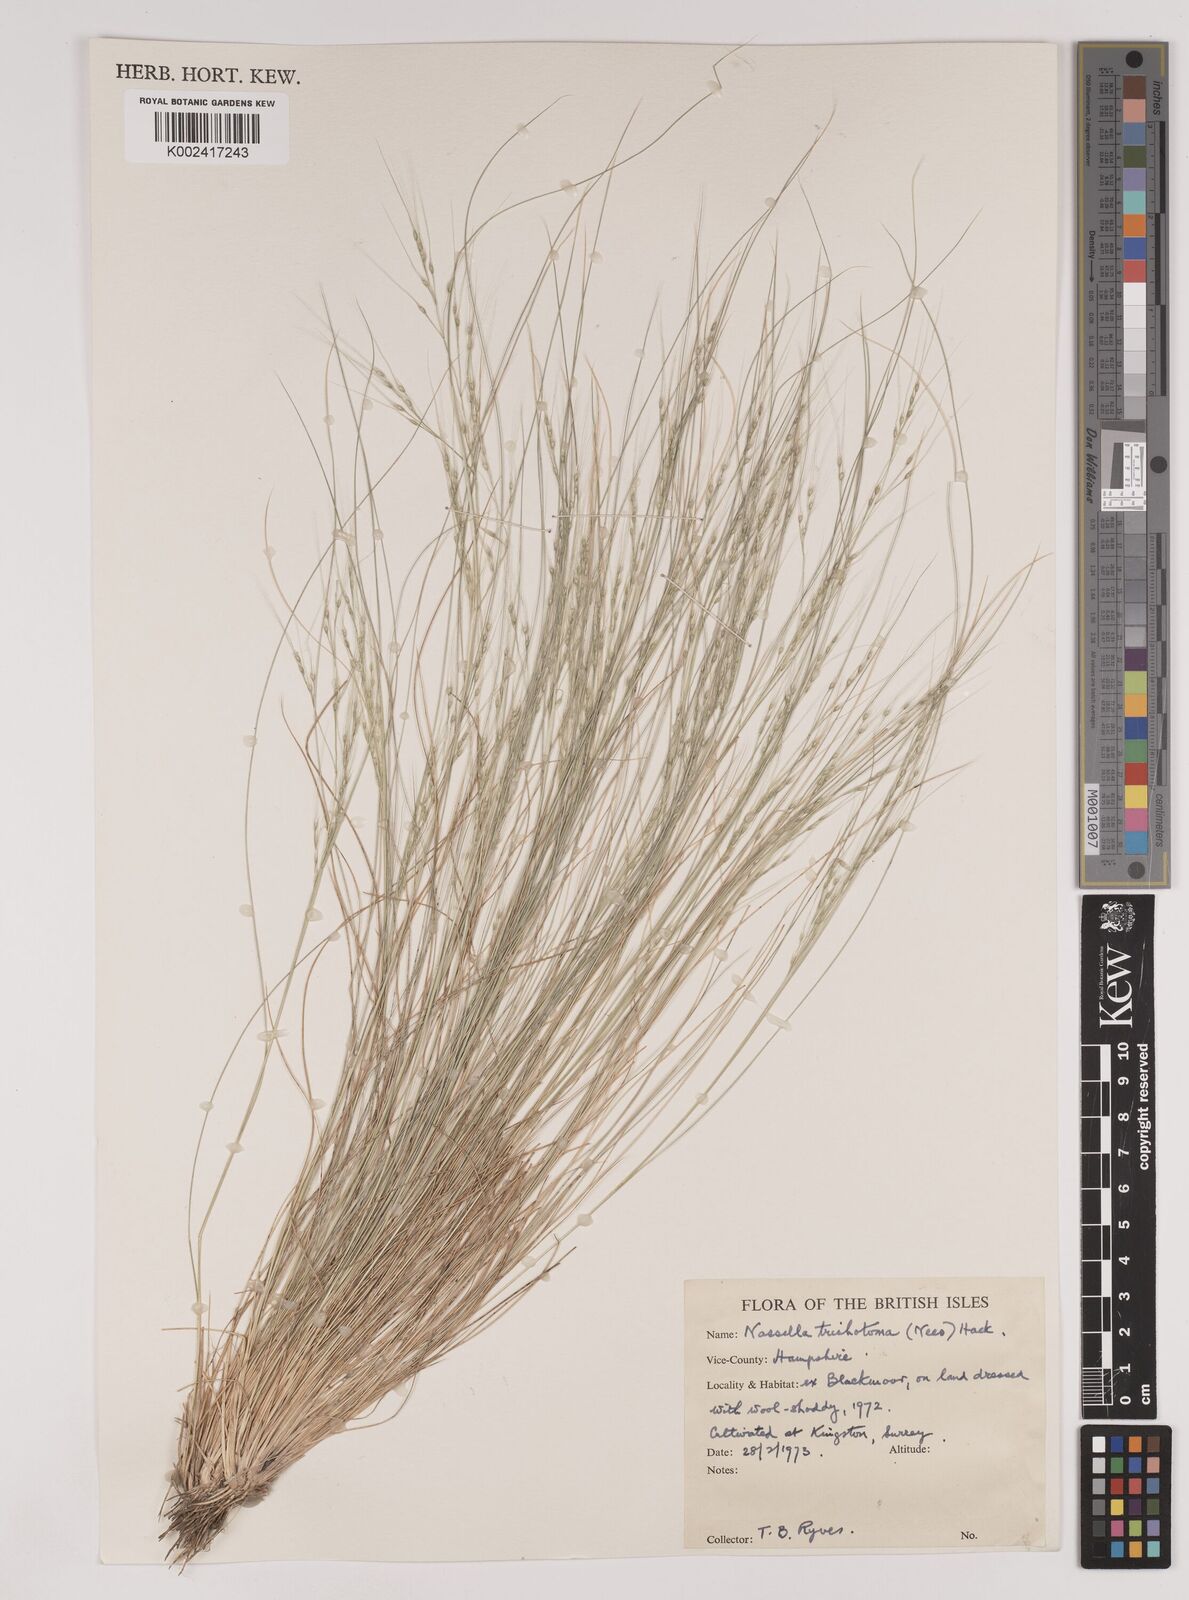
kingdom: Plantae
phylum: Tracheophyta
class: Liliopsida
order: Poales
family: Poaceae
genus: Nassella
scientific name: Nassella trichotoma
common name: Serrated tussock grass
